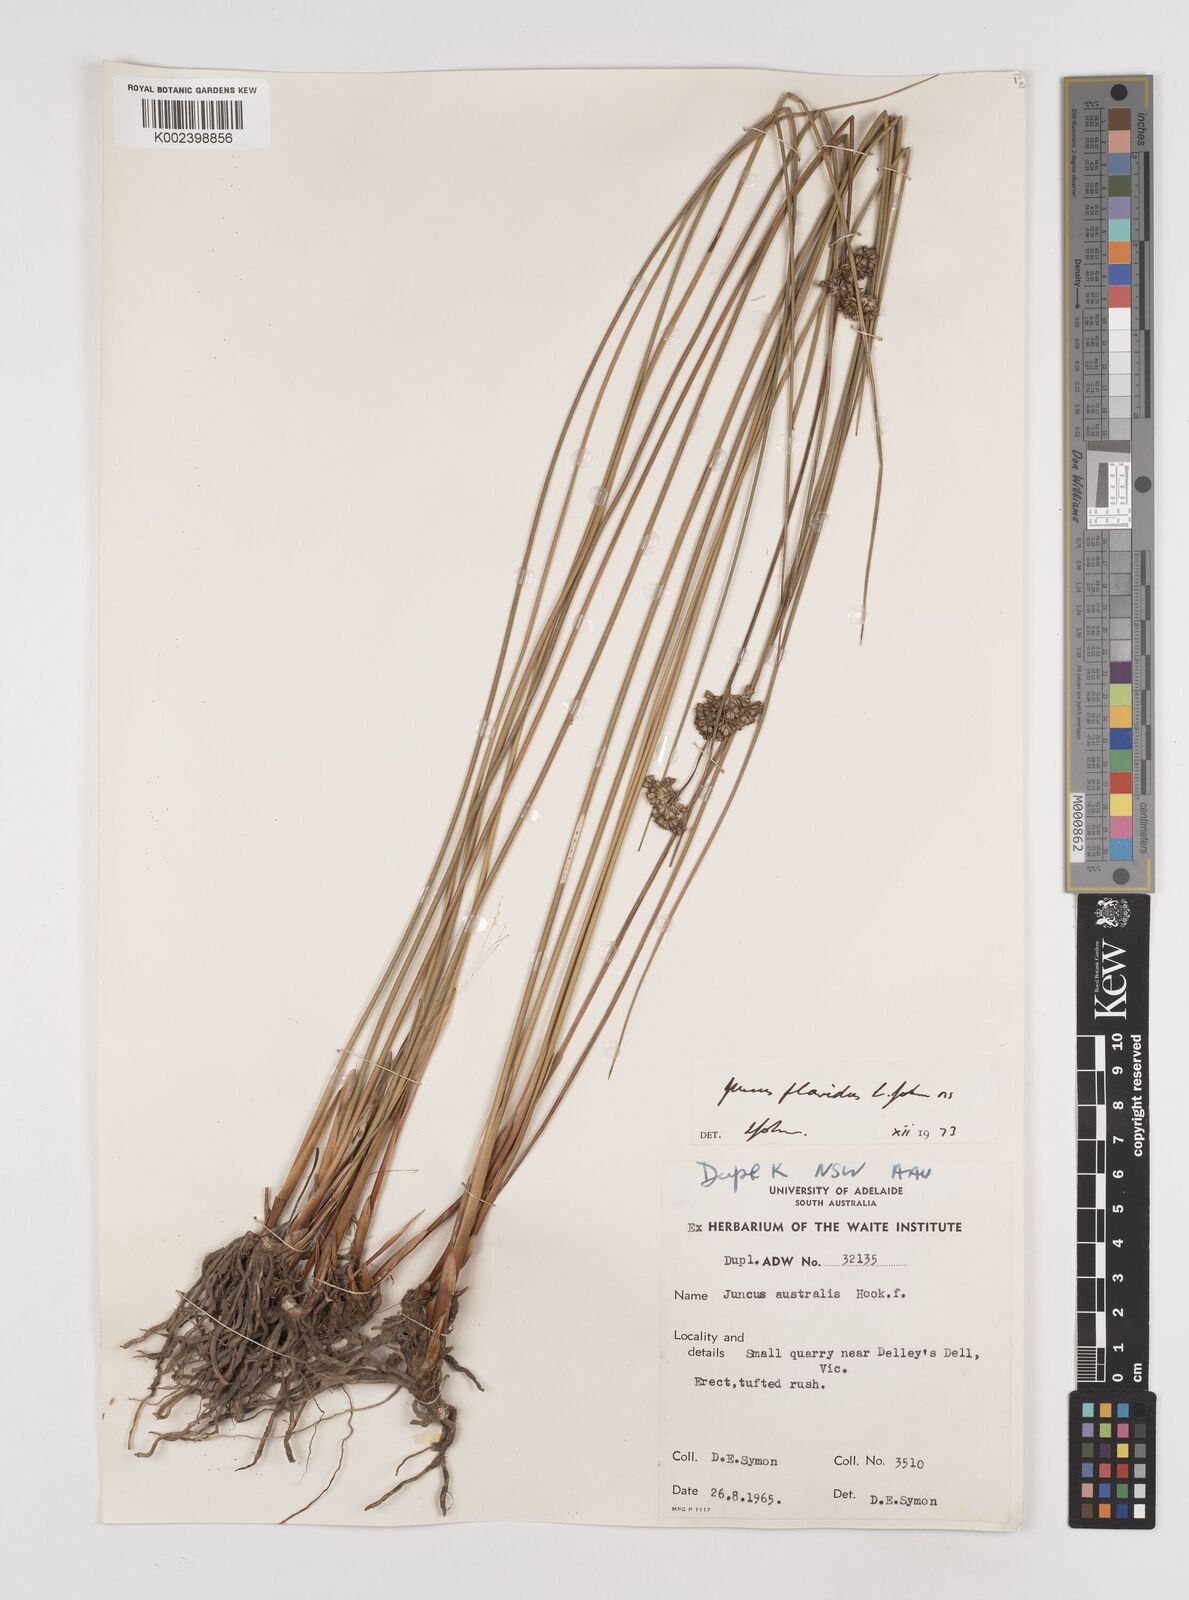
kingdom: Plantae
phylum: Tracheophyta
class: Liliopsida
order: Poales
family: Juncaceae
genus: Juncus
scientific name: Juncus flavidus
